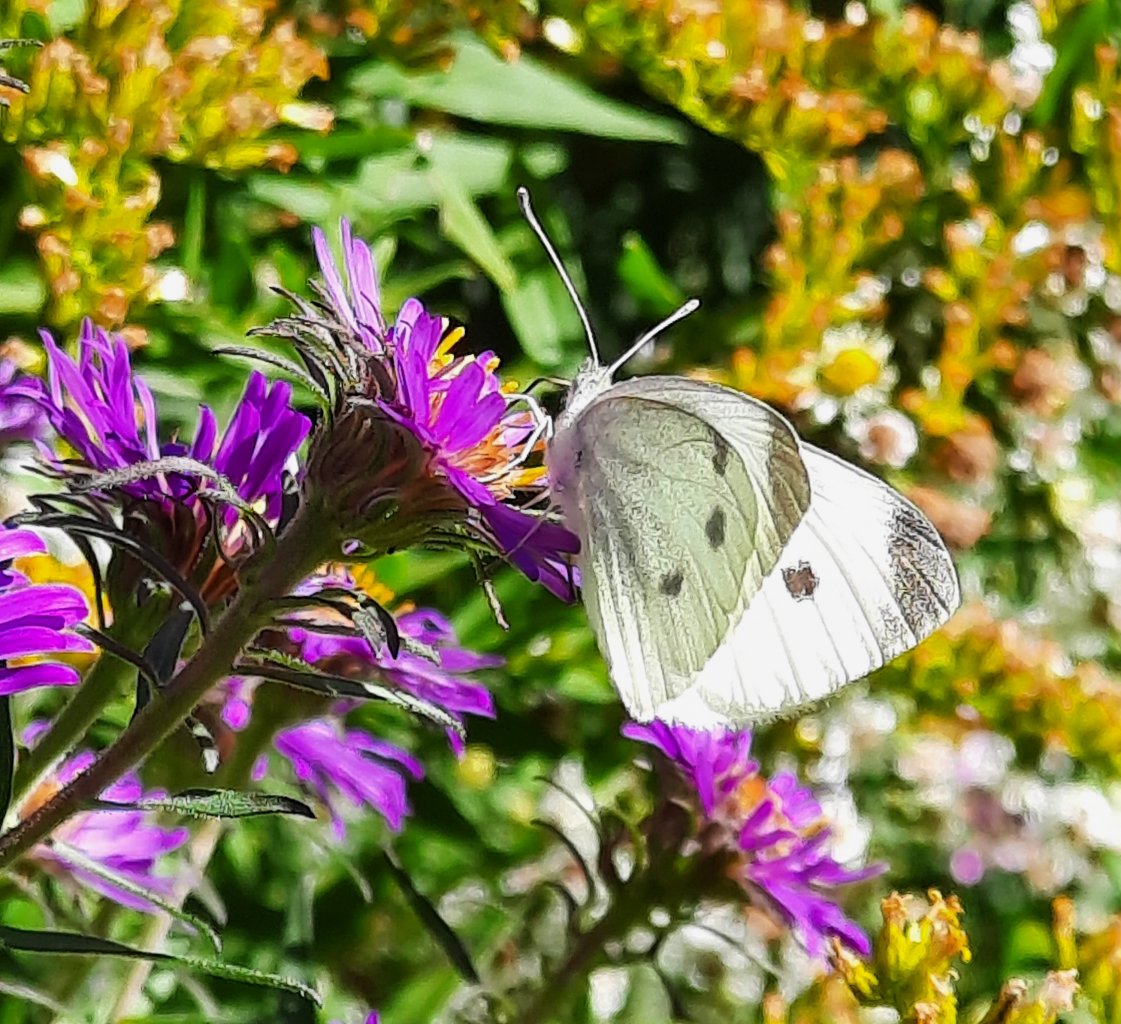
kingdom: Animalia
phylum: Arthropoda
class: Insecta
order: Lepidoptera
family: Pieridae
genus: Pieris
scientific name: Pieris rapae
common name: Cabbage White
